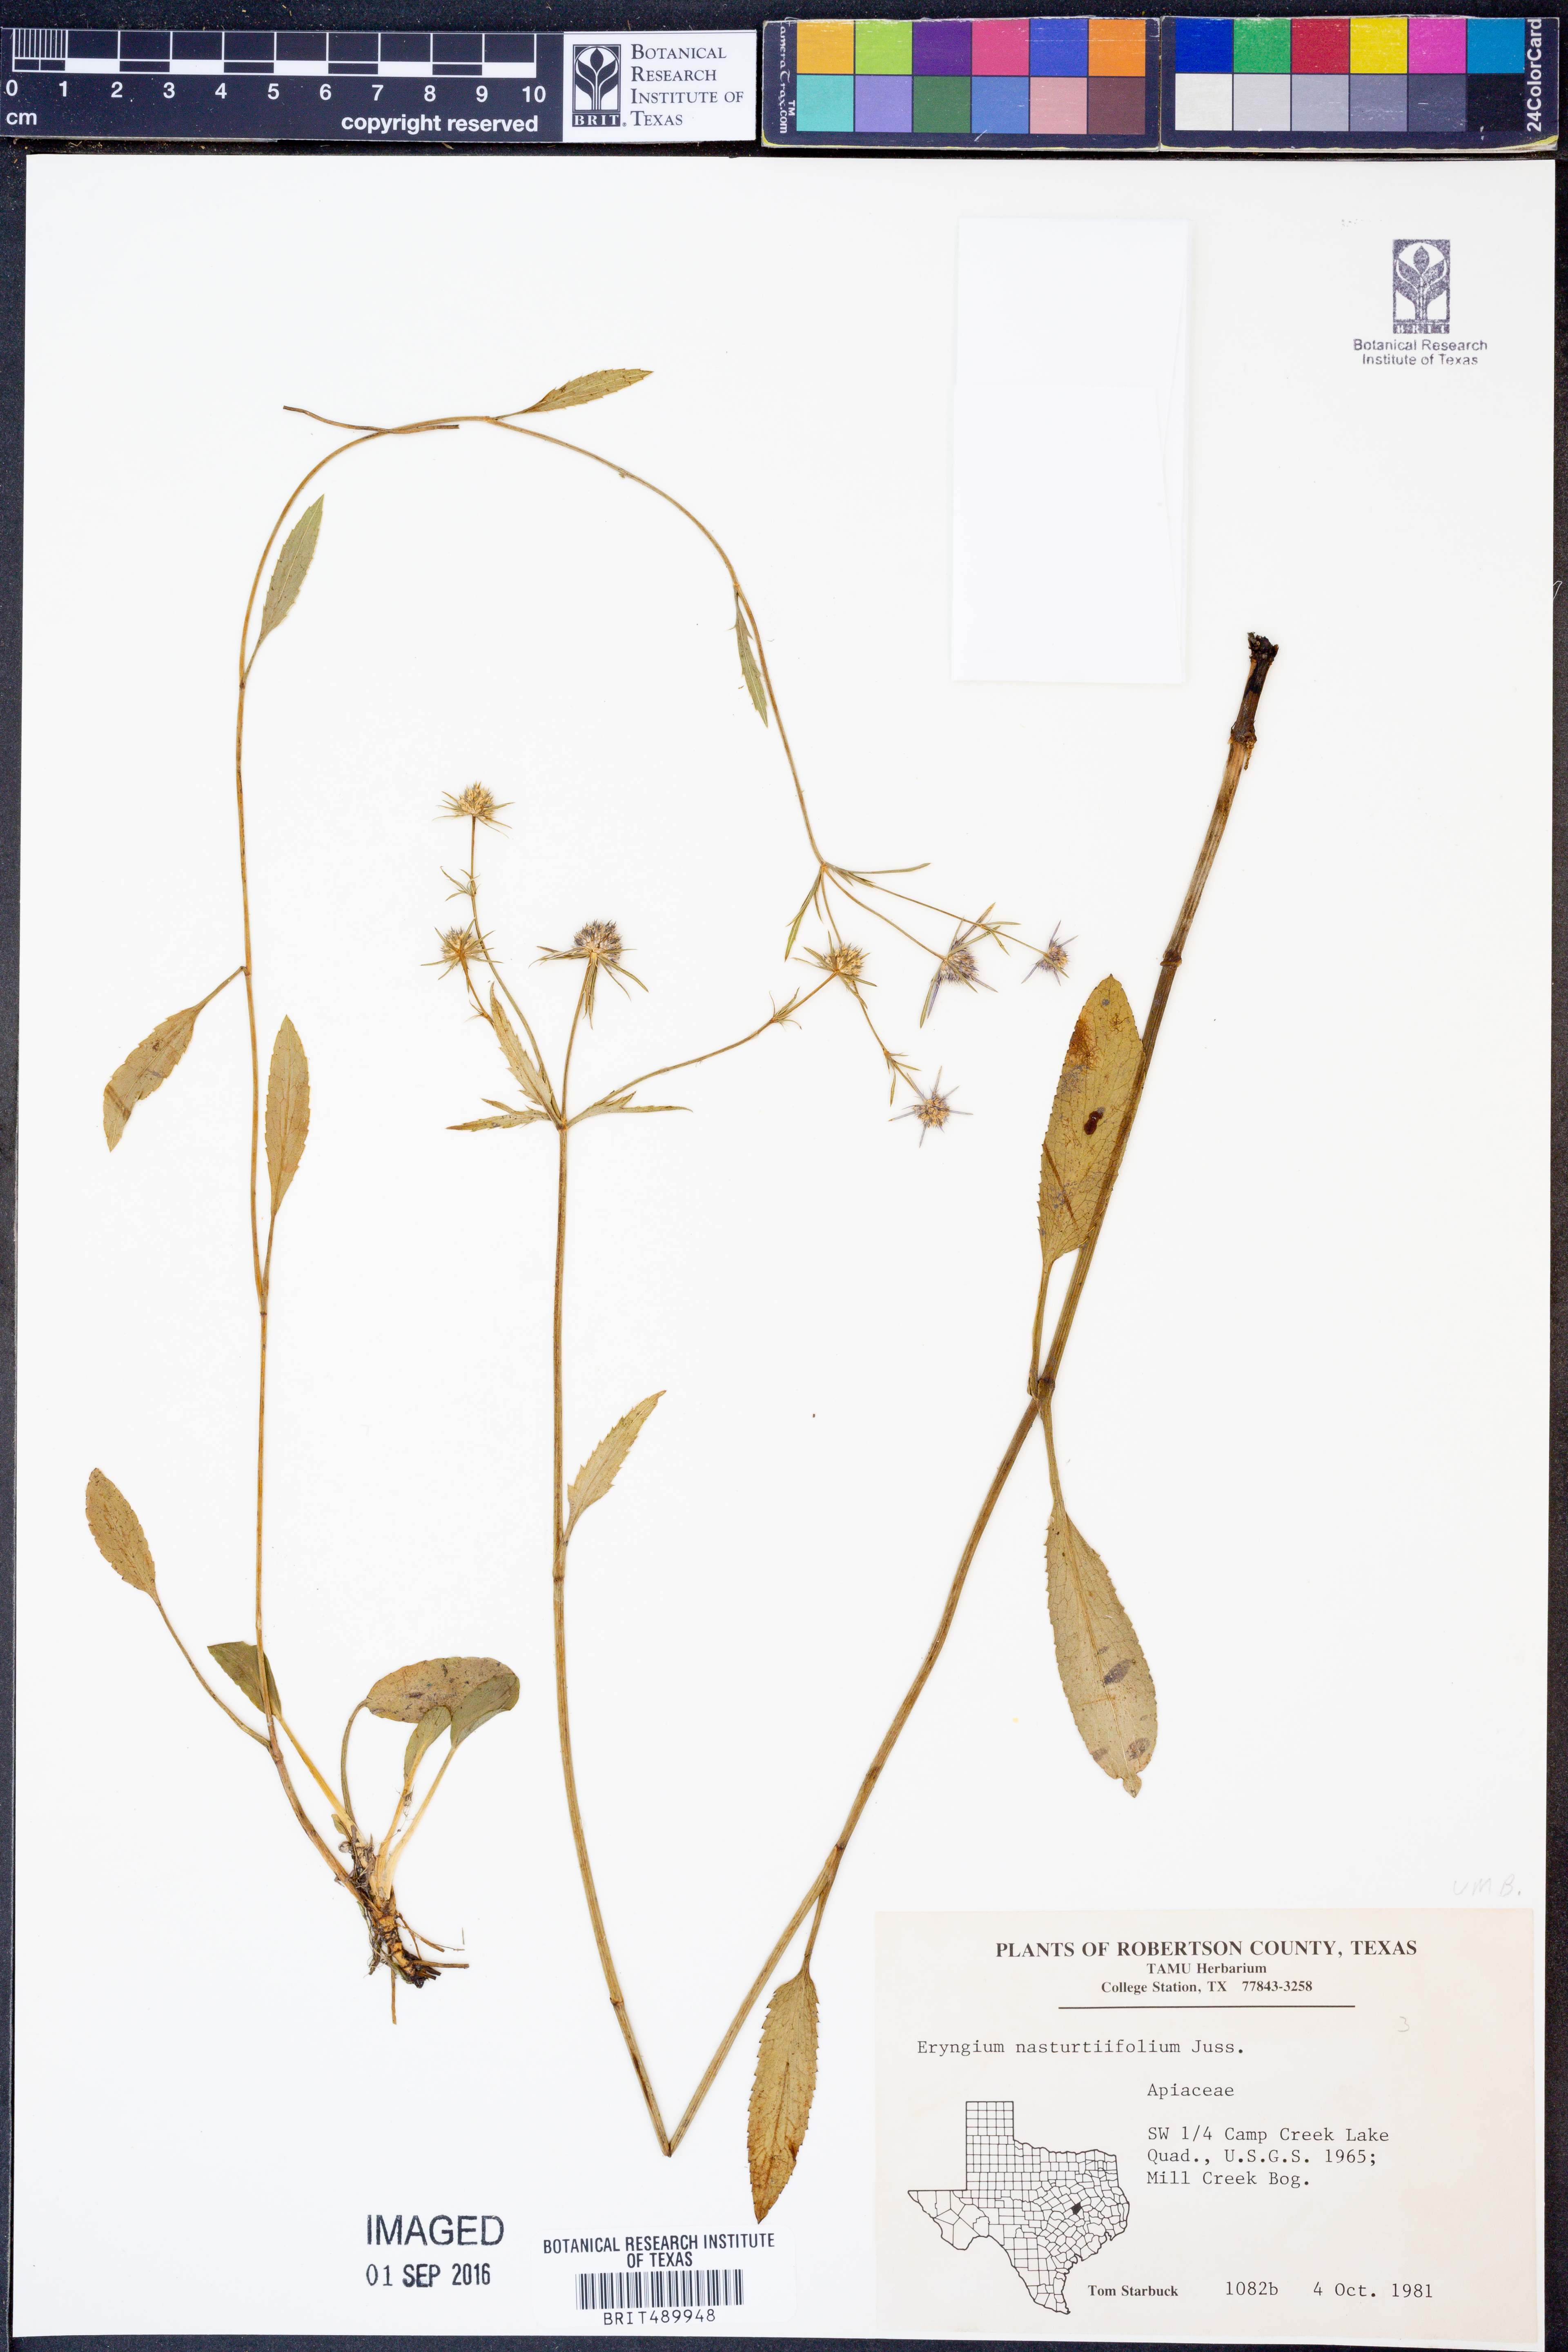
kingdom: Plantae
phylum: Tracheophyta
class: Magnoliopsida
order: Apiales
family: Apiaceae
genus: Eryngium
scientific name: Eryngium nasturtiifolium
